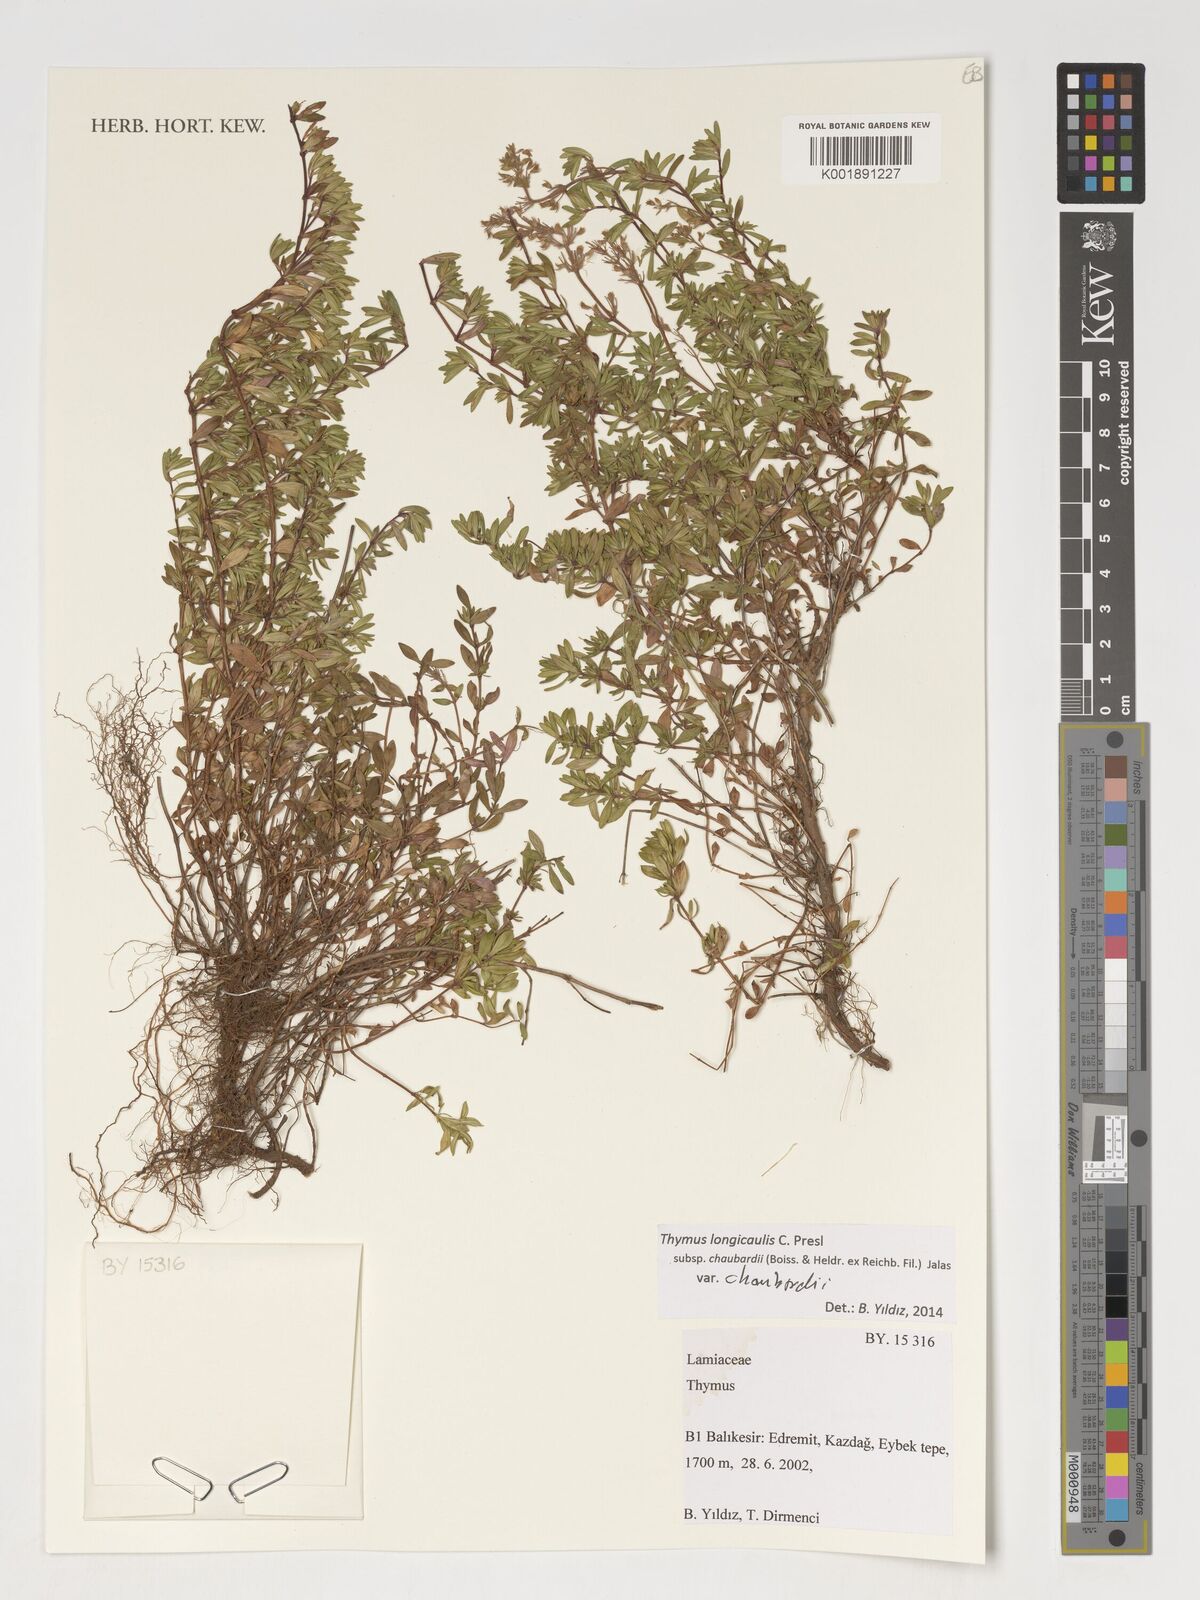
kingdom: Plantae
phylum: Tracheophyta
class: Magnoliopsida
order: Lamiales
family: Lamiaceae
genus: Thymus
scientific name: Thymus
